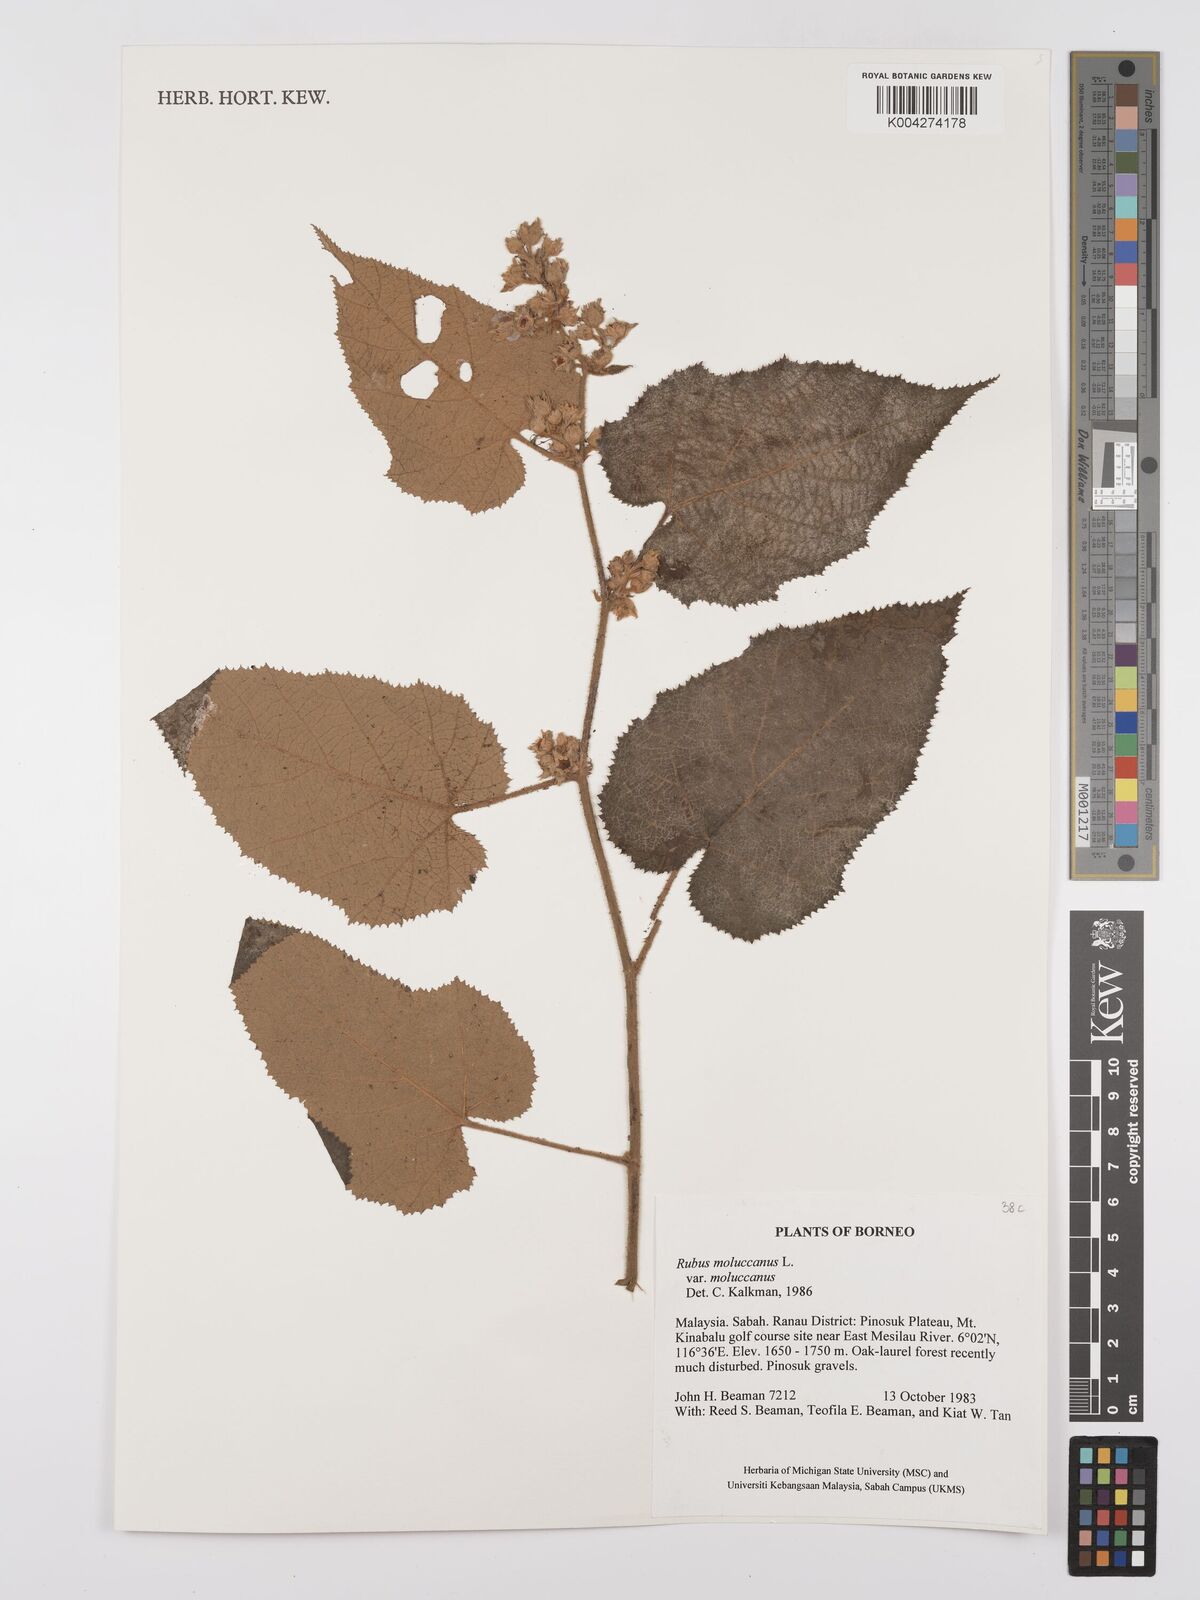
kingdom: Plantae
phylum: Tracheophyta
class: Magnoliopsida
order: Rosales
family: Rosaceae
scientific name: Rosaceae
